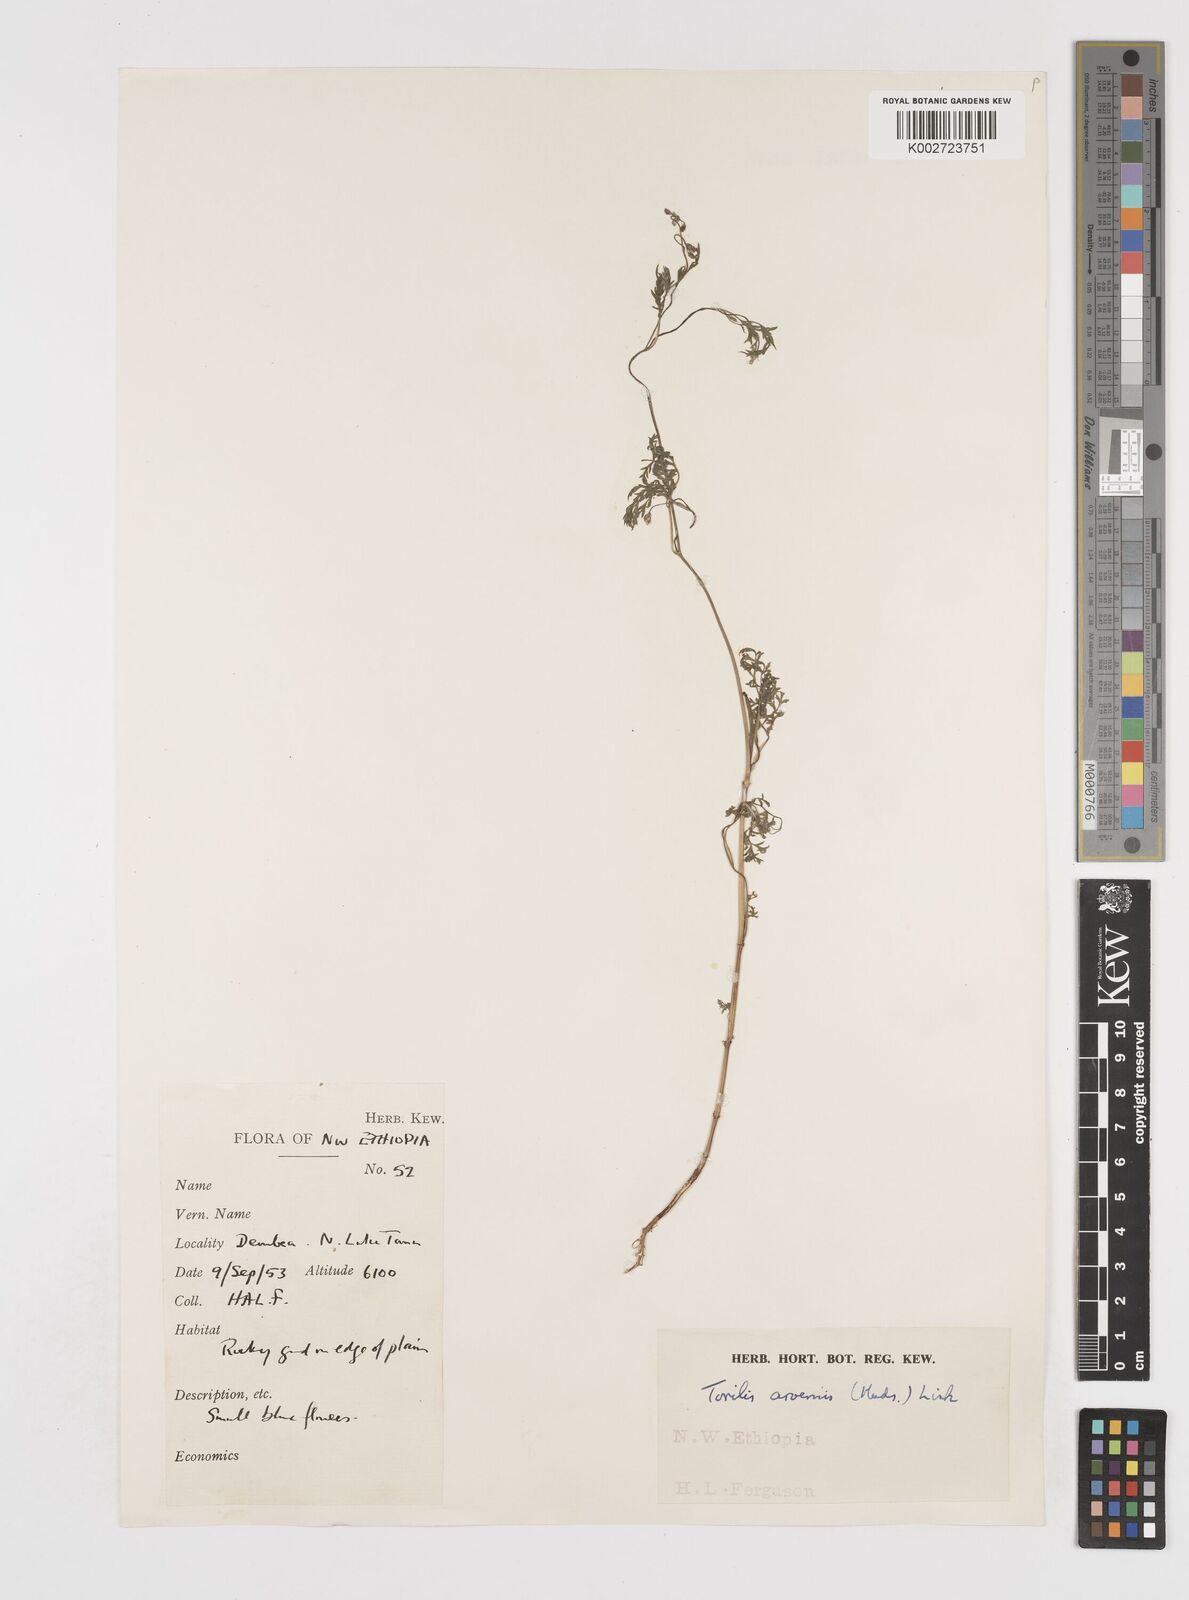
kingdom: Plantae
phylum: Tracheophyta
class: Magnoliopsida
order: Apiales
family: Apiaceae
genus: Torilis
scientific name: Torilis arvensis
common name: Spreading hedge-parsley
